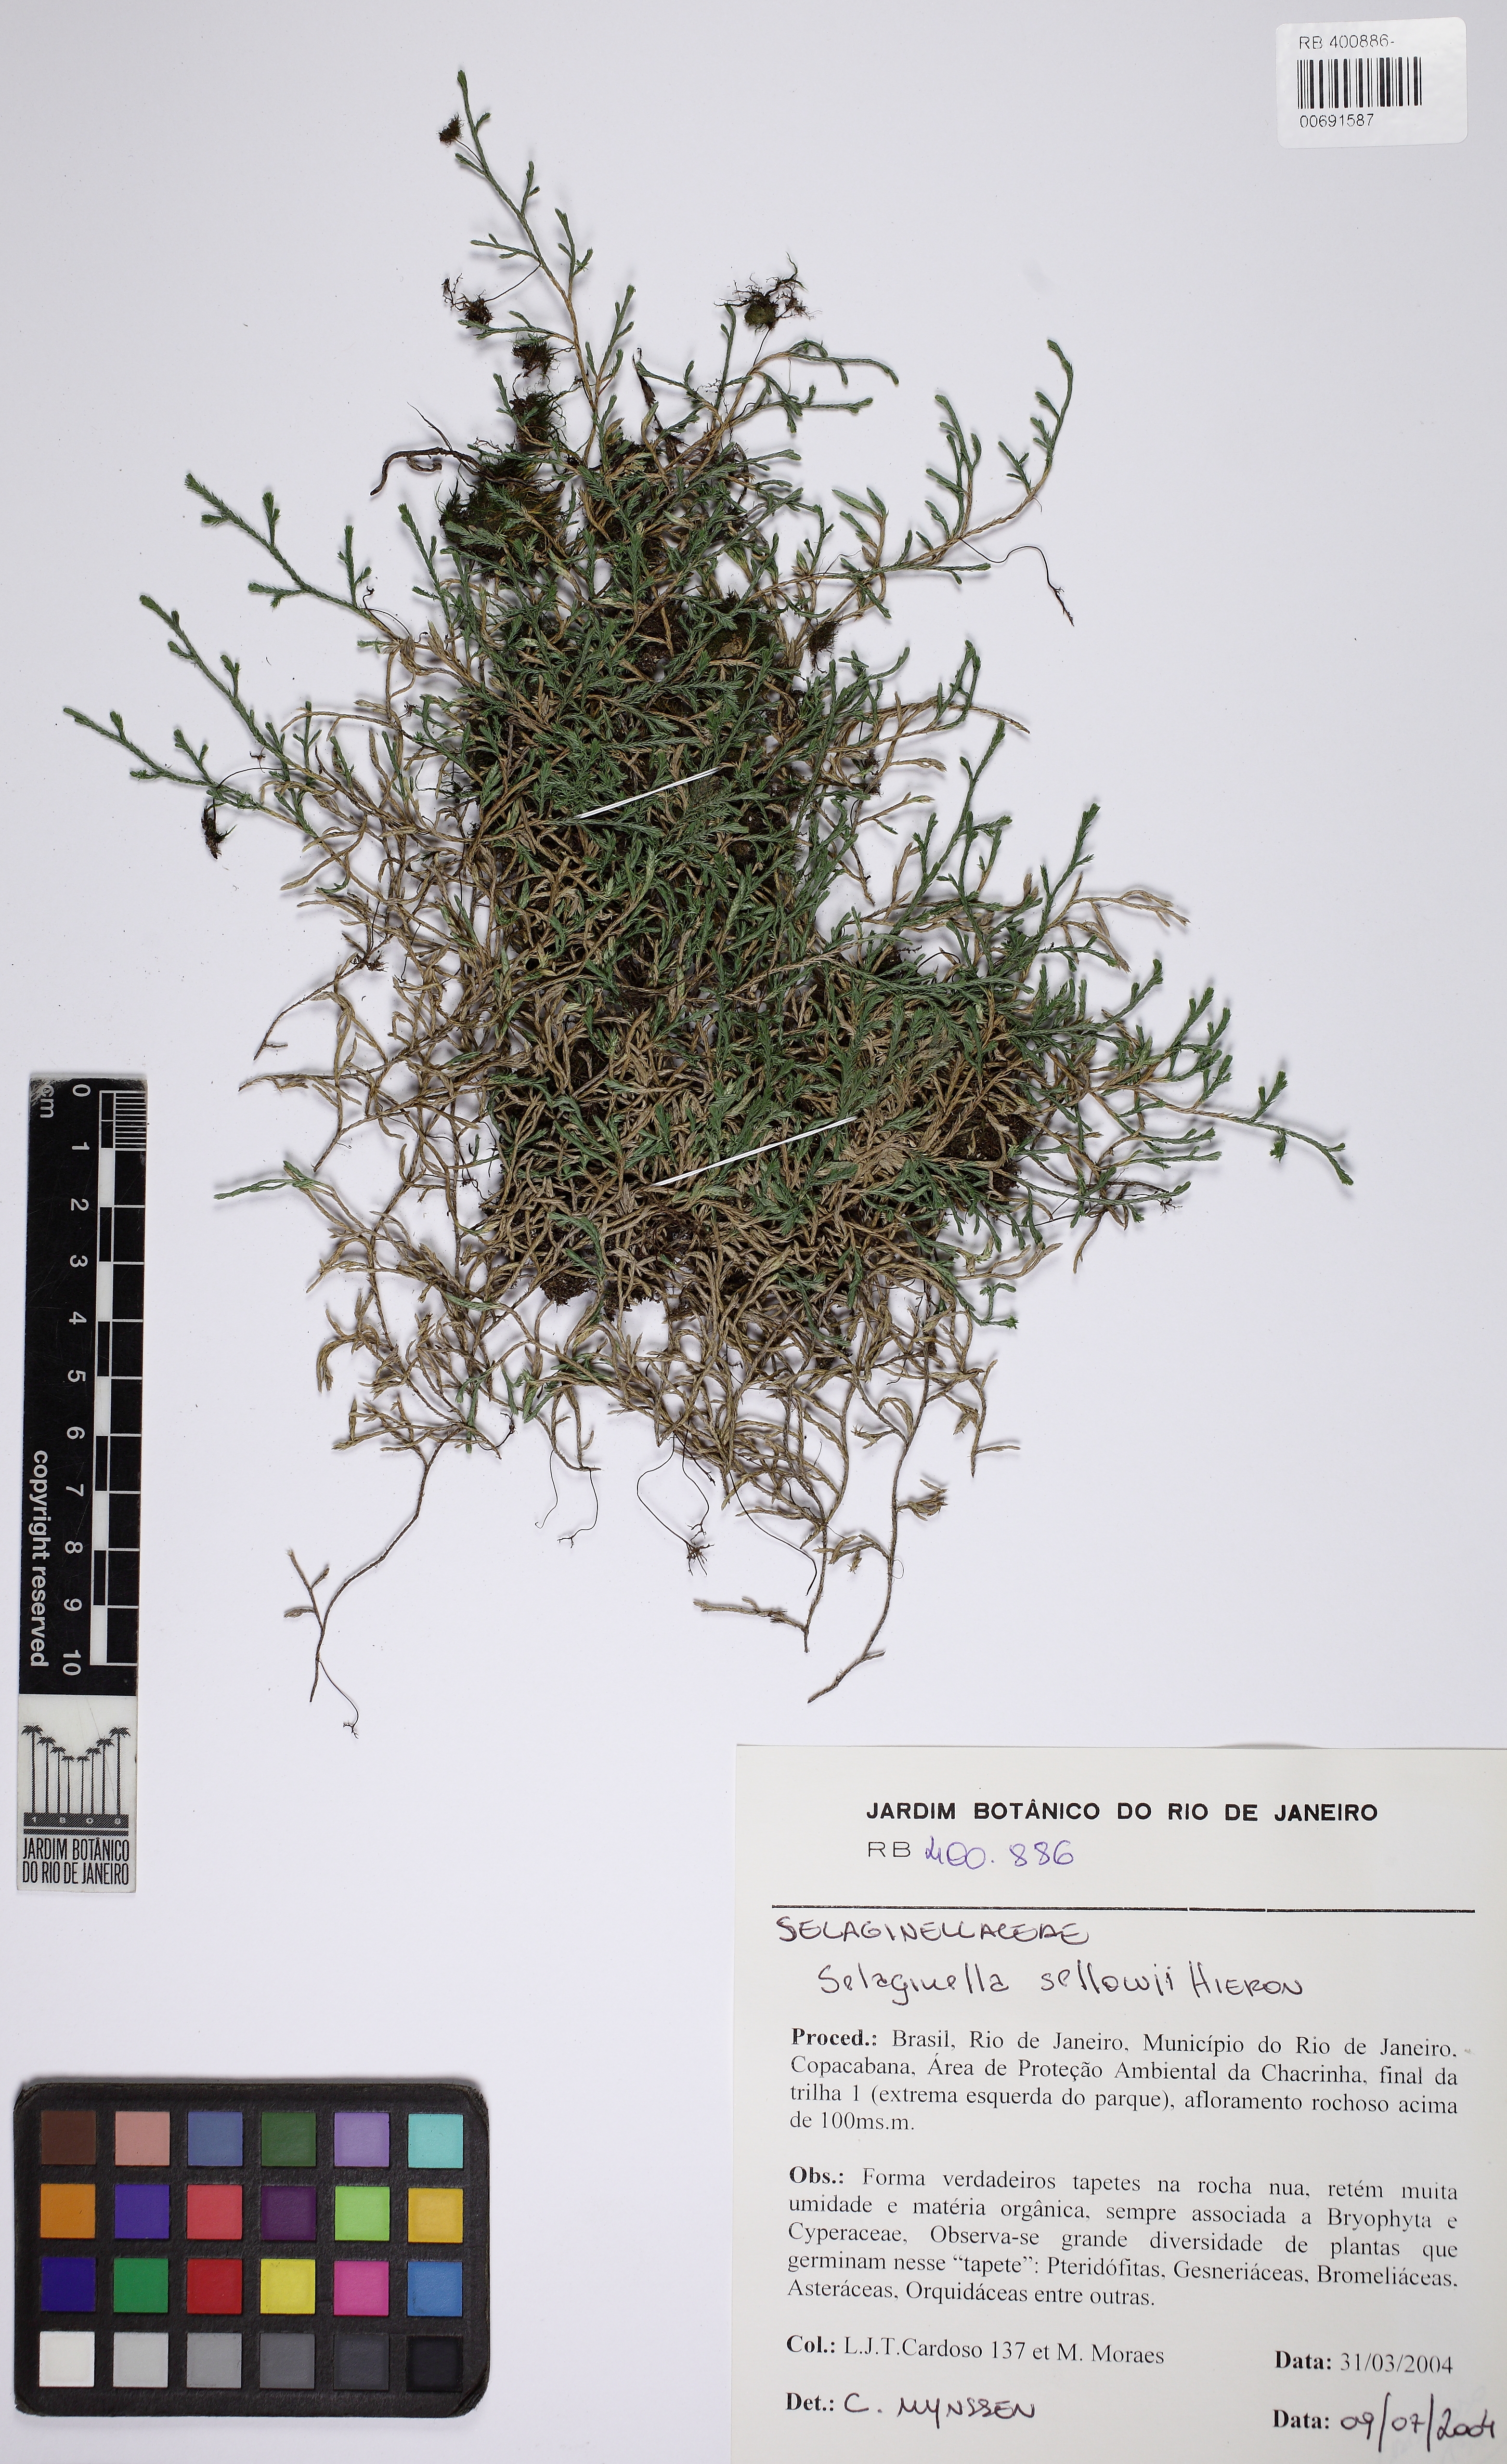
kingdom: Plantae
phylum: Tracheophyta
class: Lycopodiopsida
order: Selaginellales
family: Selaginellaceae
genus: Selaginella
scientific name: Selaginella sellowii
